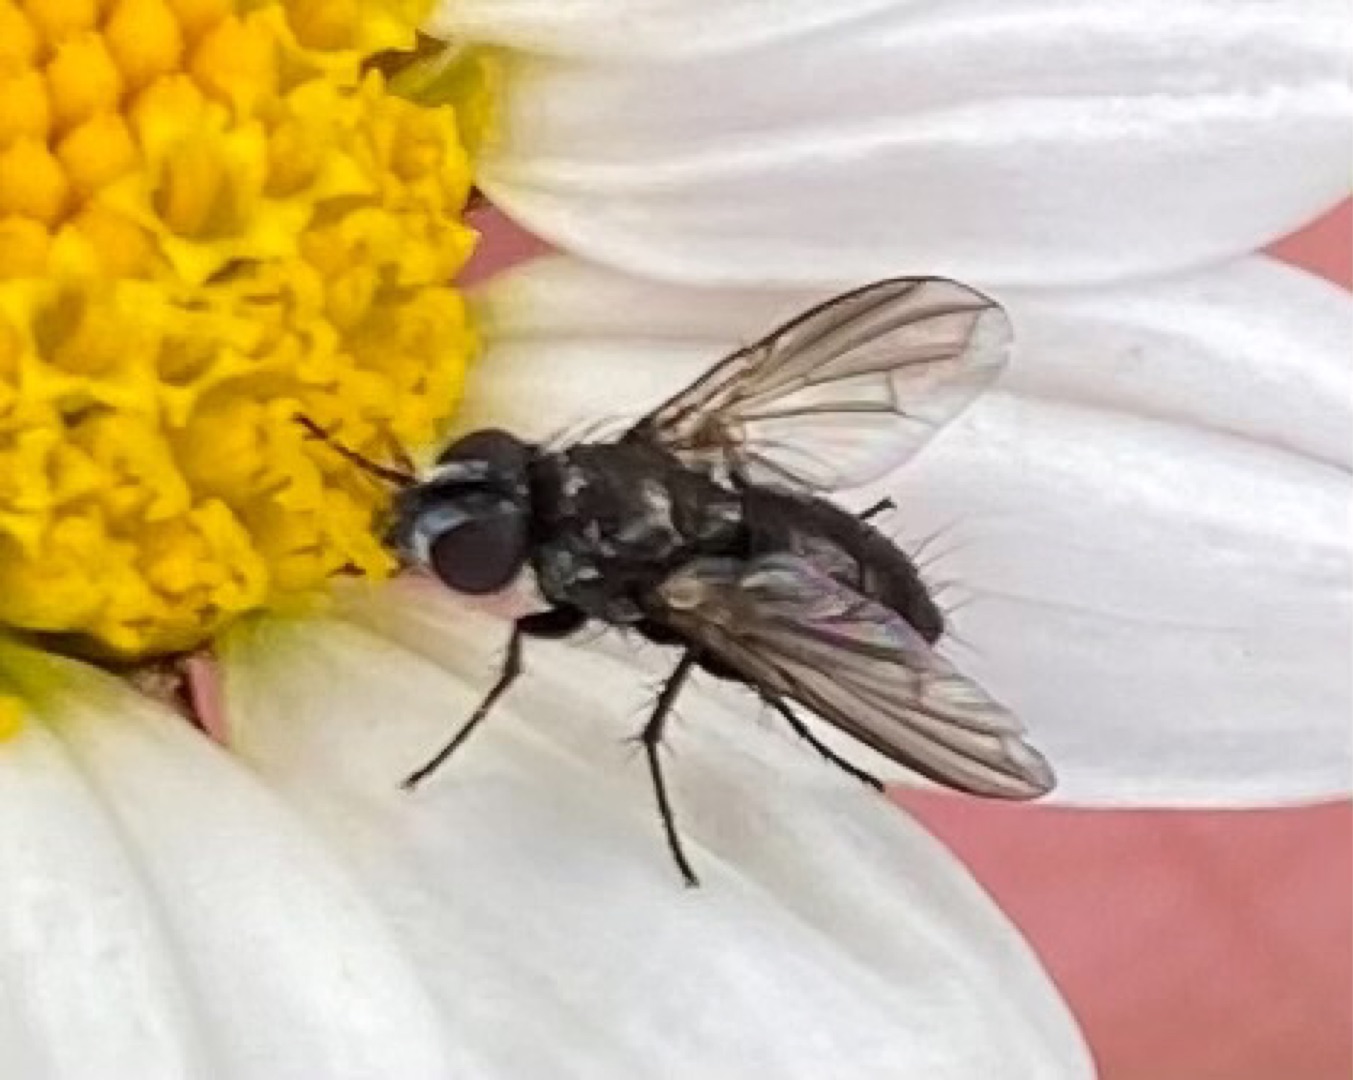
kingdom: Animalia
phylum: Arthropoda
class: Insecta
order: Diptera
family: Calliphoridae
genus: Rhinophora
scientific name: Rhinophora lepida
